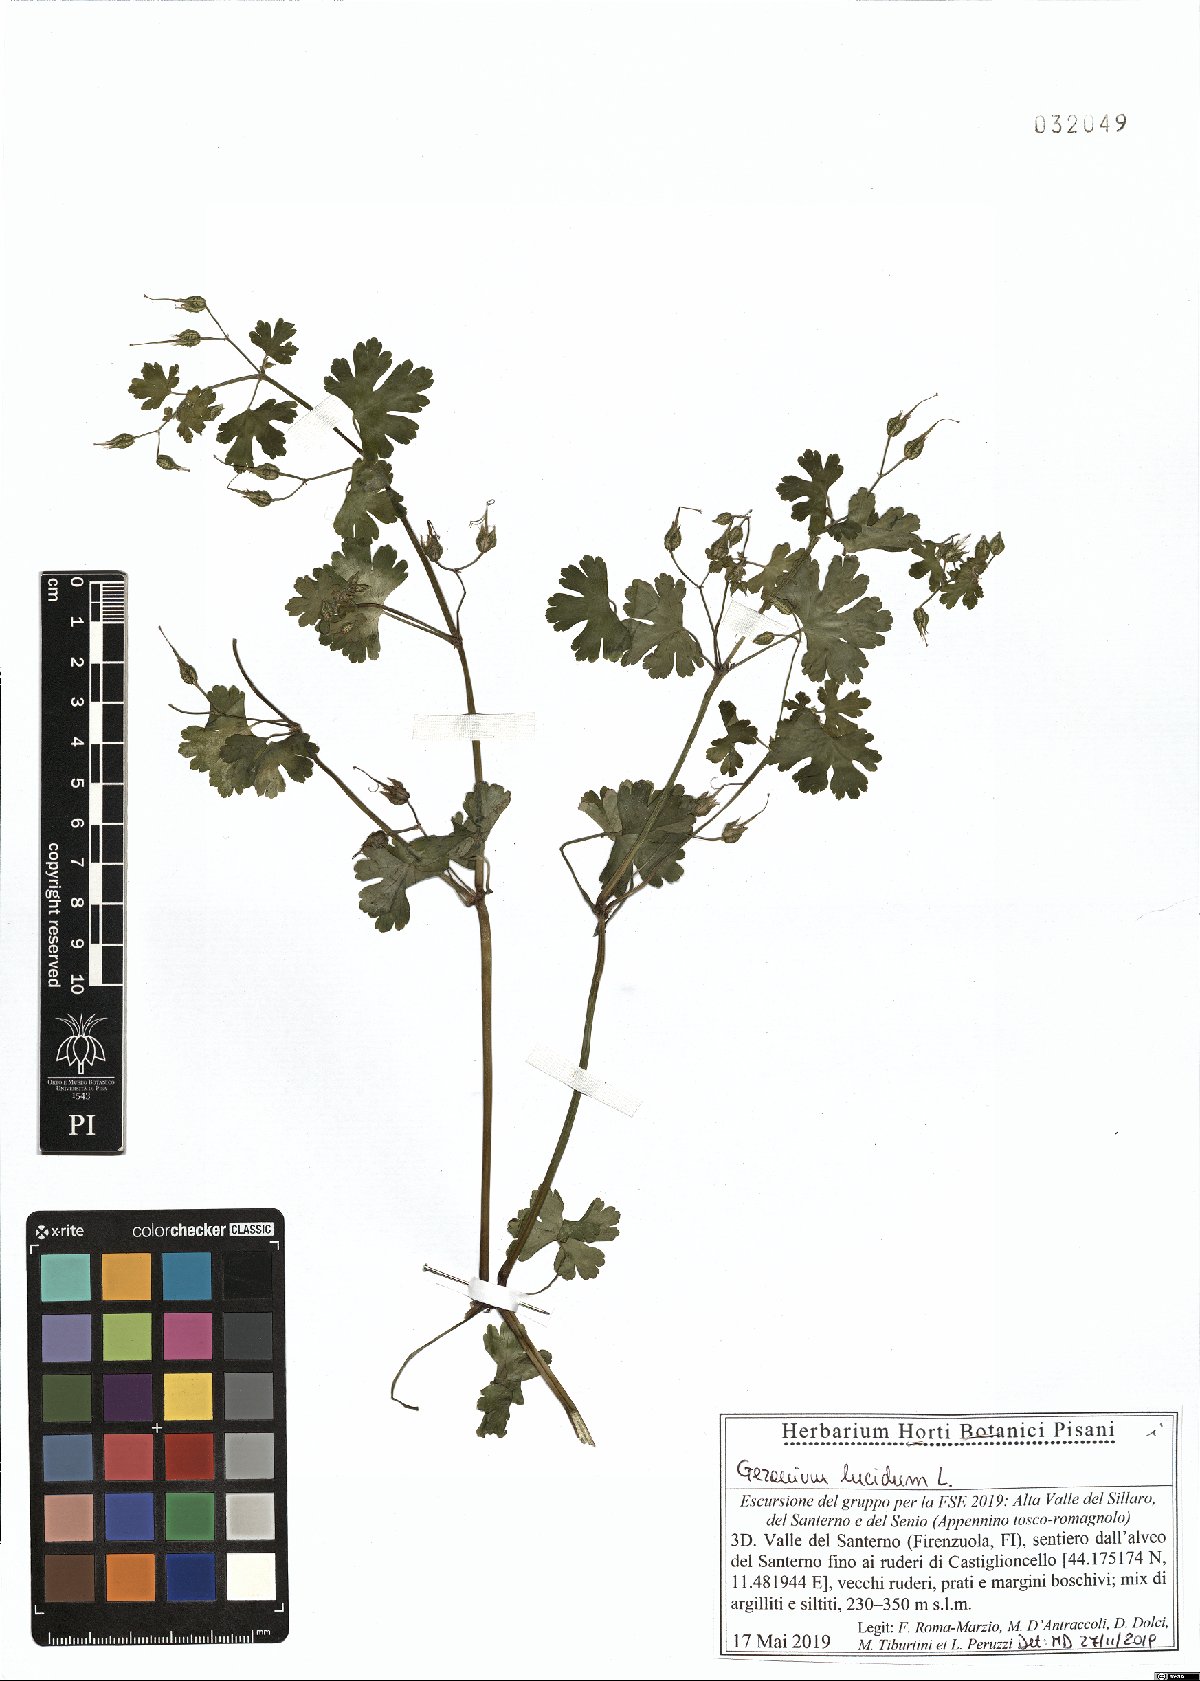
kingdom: Plantae
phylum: Tracheophyta
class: Magnoliopsida
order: Geraniales
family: Geraniaceae
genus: Geranium
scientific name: Geranium lucidum
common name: Shining crane's-bill
